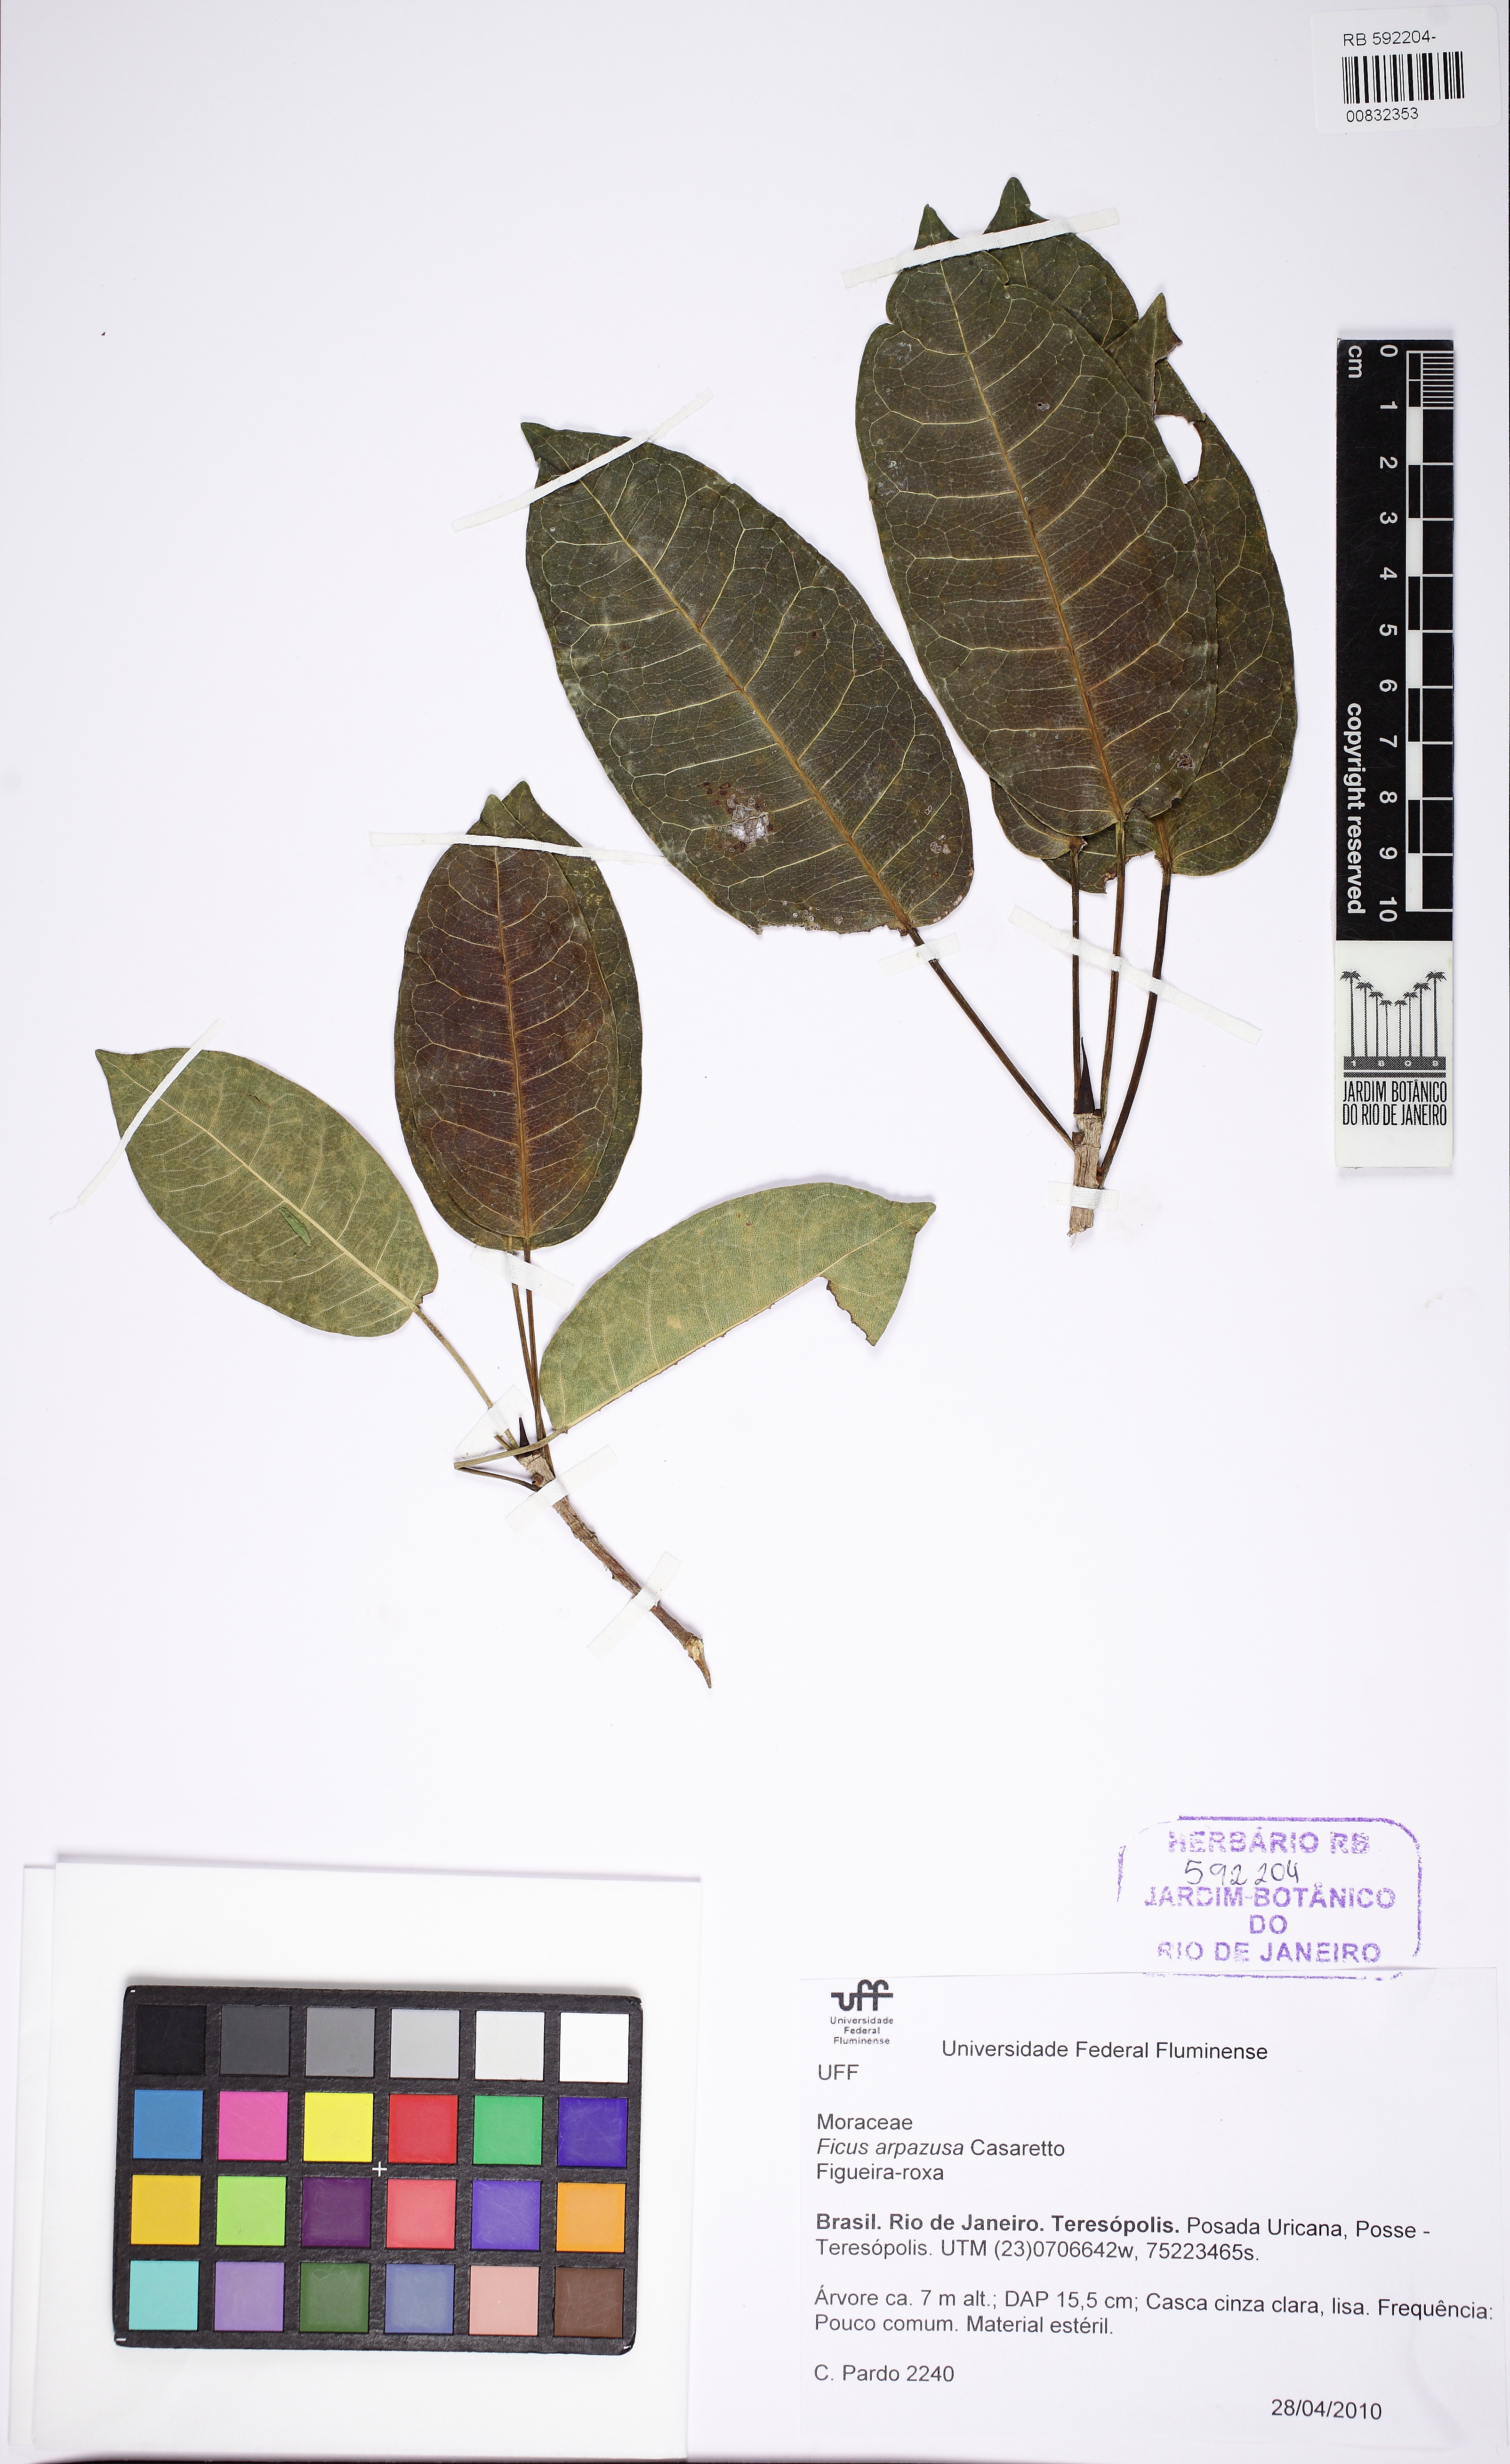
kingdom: Plantae
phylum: Tracheophyta
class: Magnoliopsida
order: Rosales
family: Moraceae
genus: Ficus
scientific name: Ficus arpazusa
